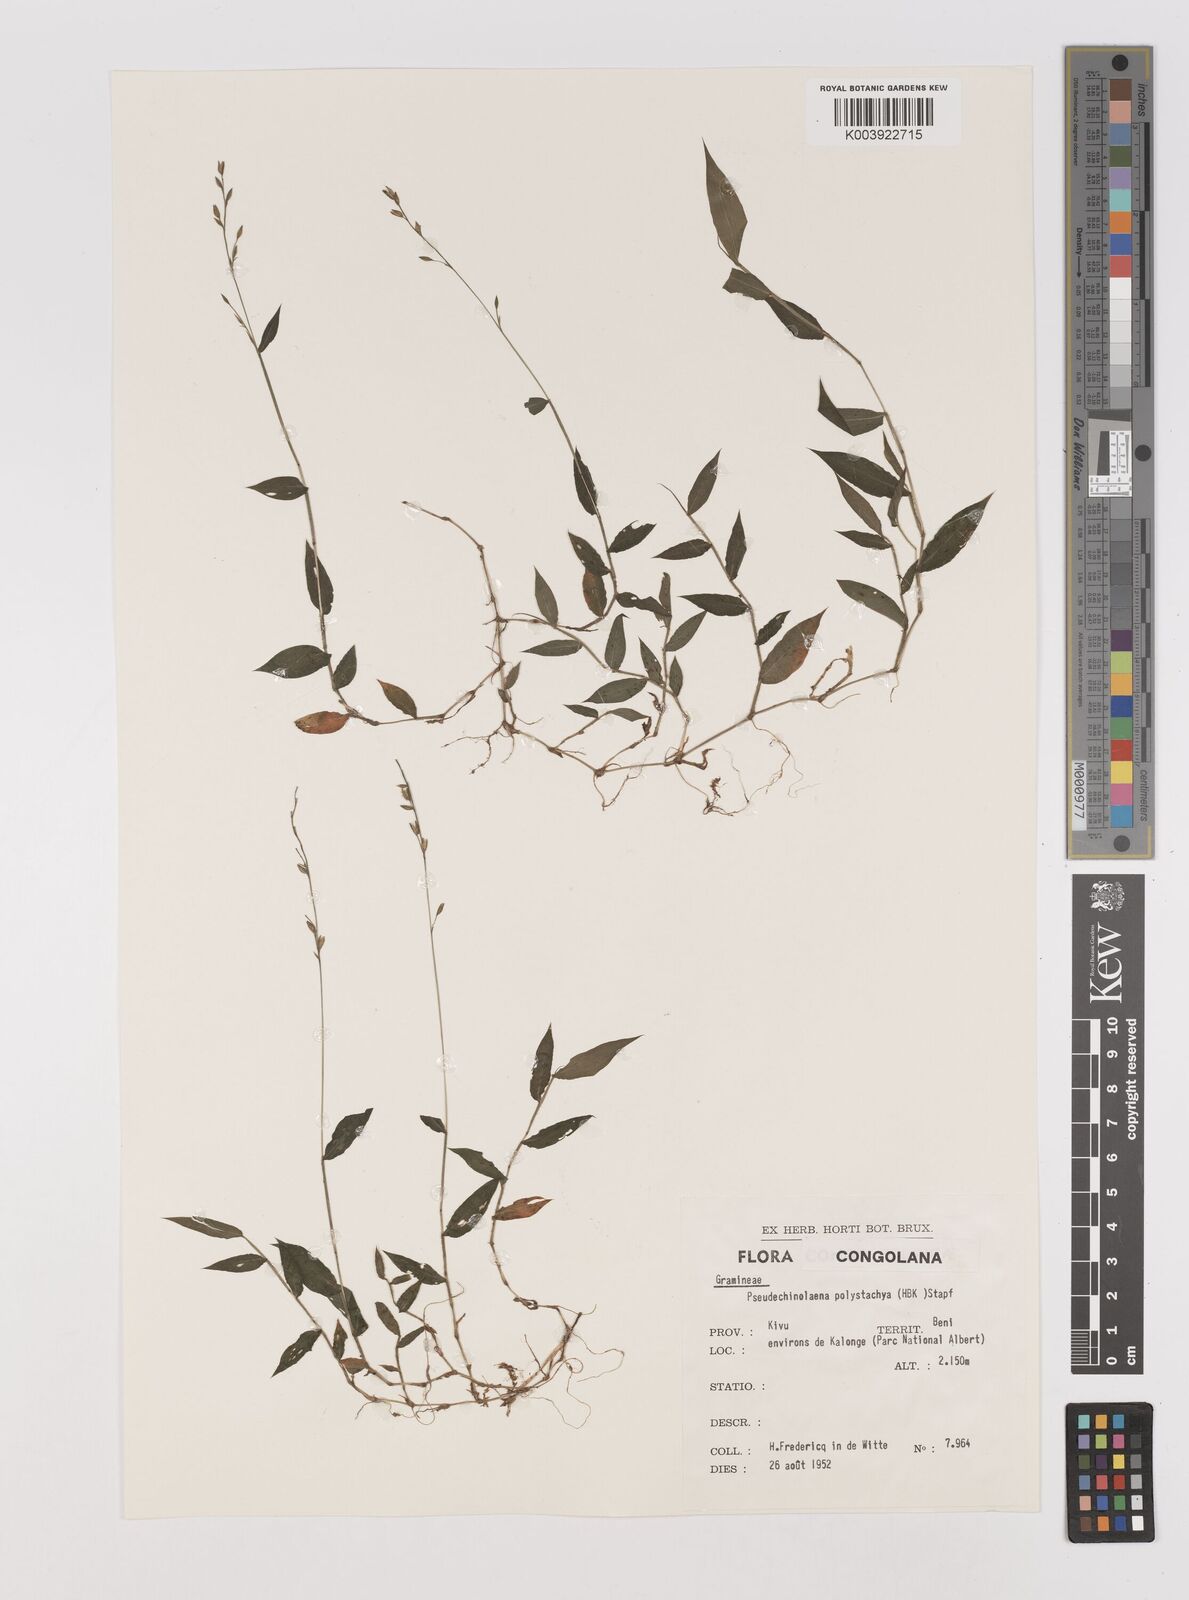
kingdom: Plantae
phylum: Tracheophyta
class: Liliopsida
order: Poales
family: Poaceae
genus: Pseudechinolaena
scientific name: Pseudechinolaena polystachya
